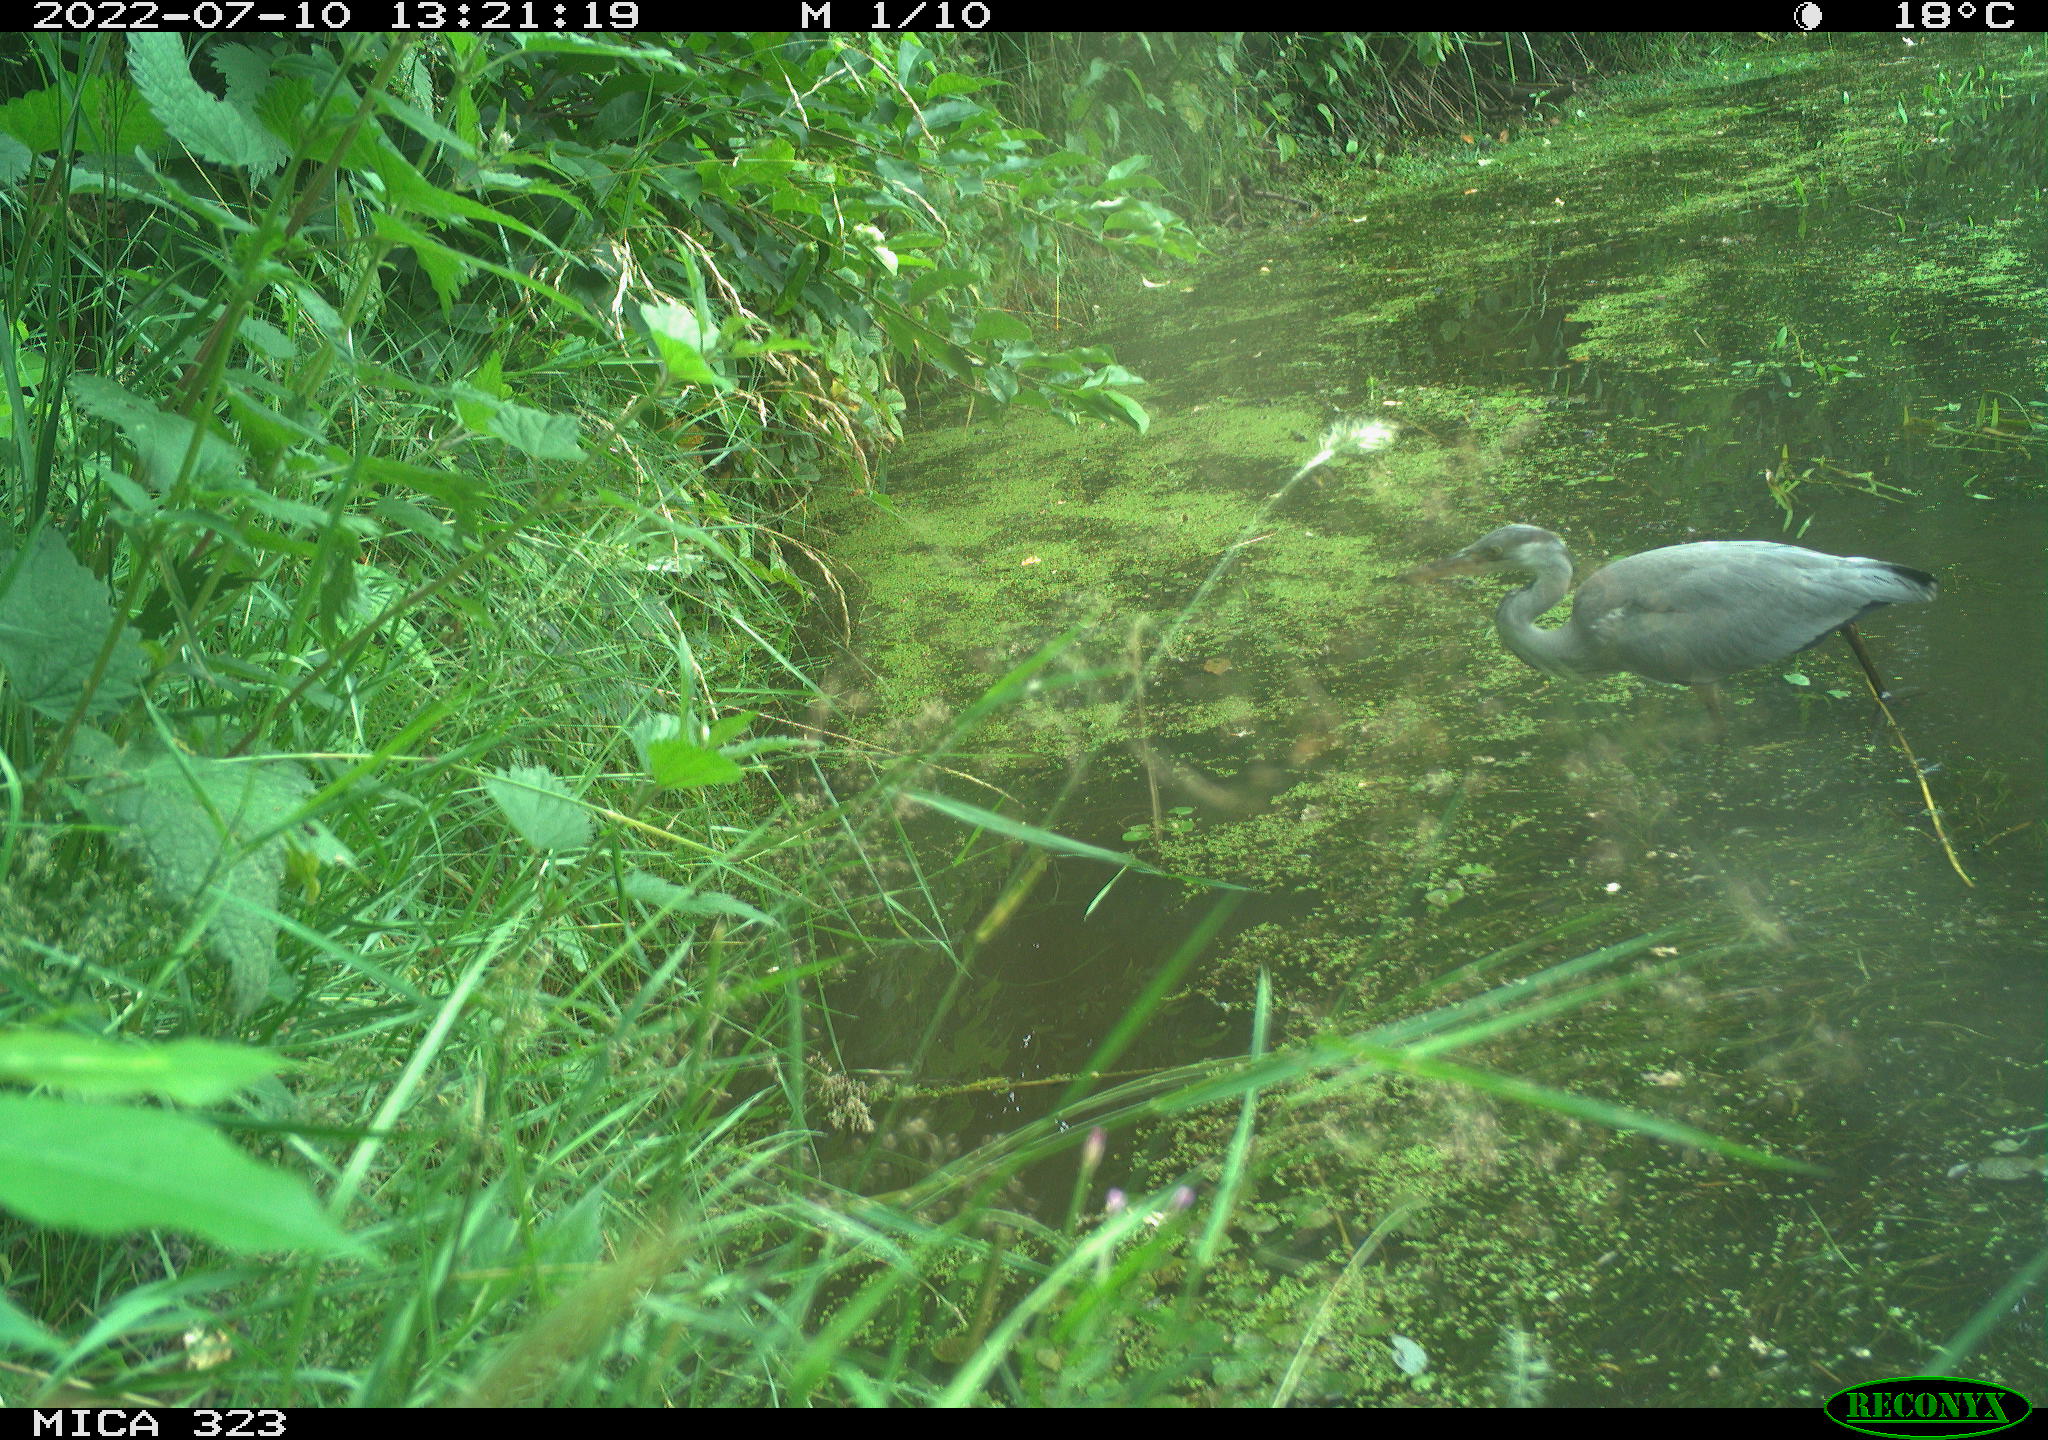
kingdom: Animalia
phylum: Chordata
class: Aves
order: Pelecaniformes
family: Ardeidae
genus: Ardea
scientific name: Ardea cinerea
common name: Grey heron
